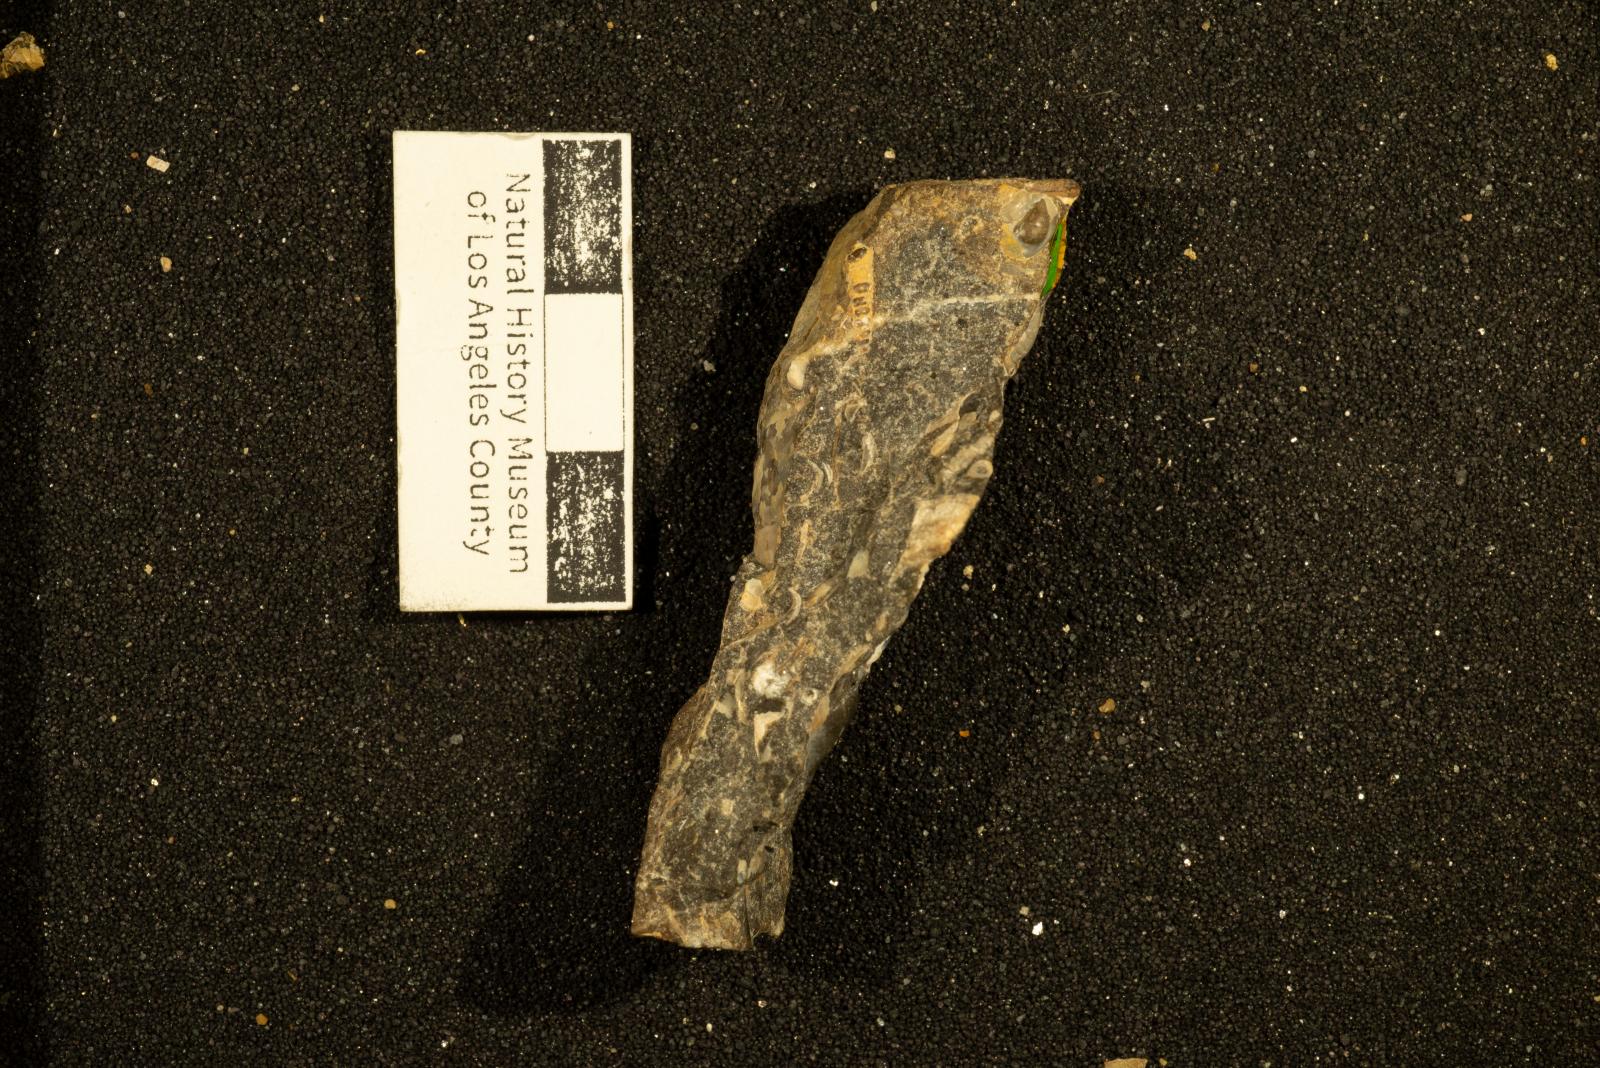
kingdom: Animalia
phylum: Mollusca
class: Gastropoda
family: Turritellidae
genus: Turritella
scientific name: Turritella
